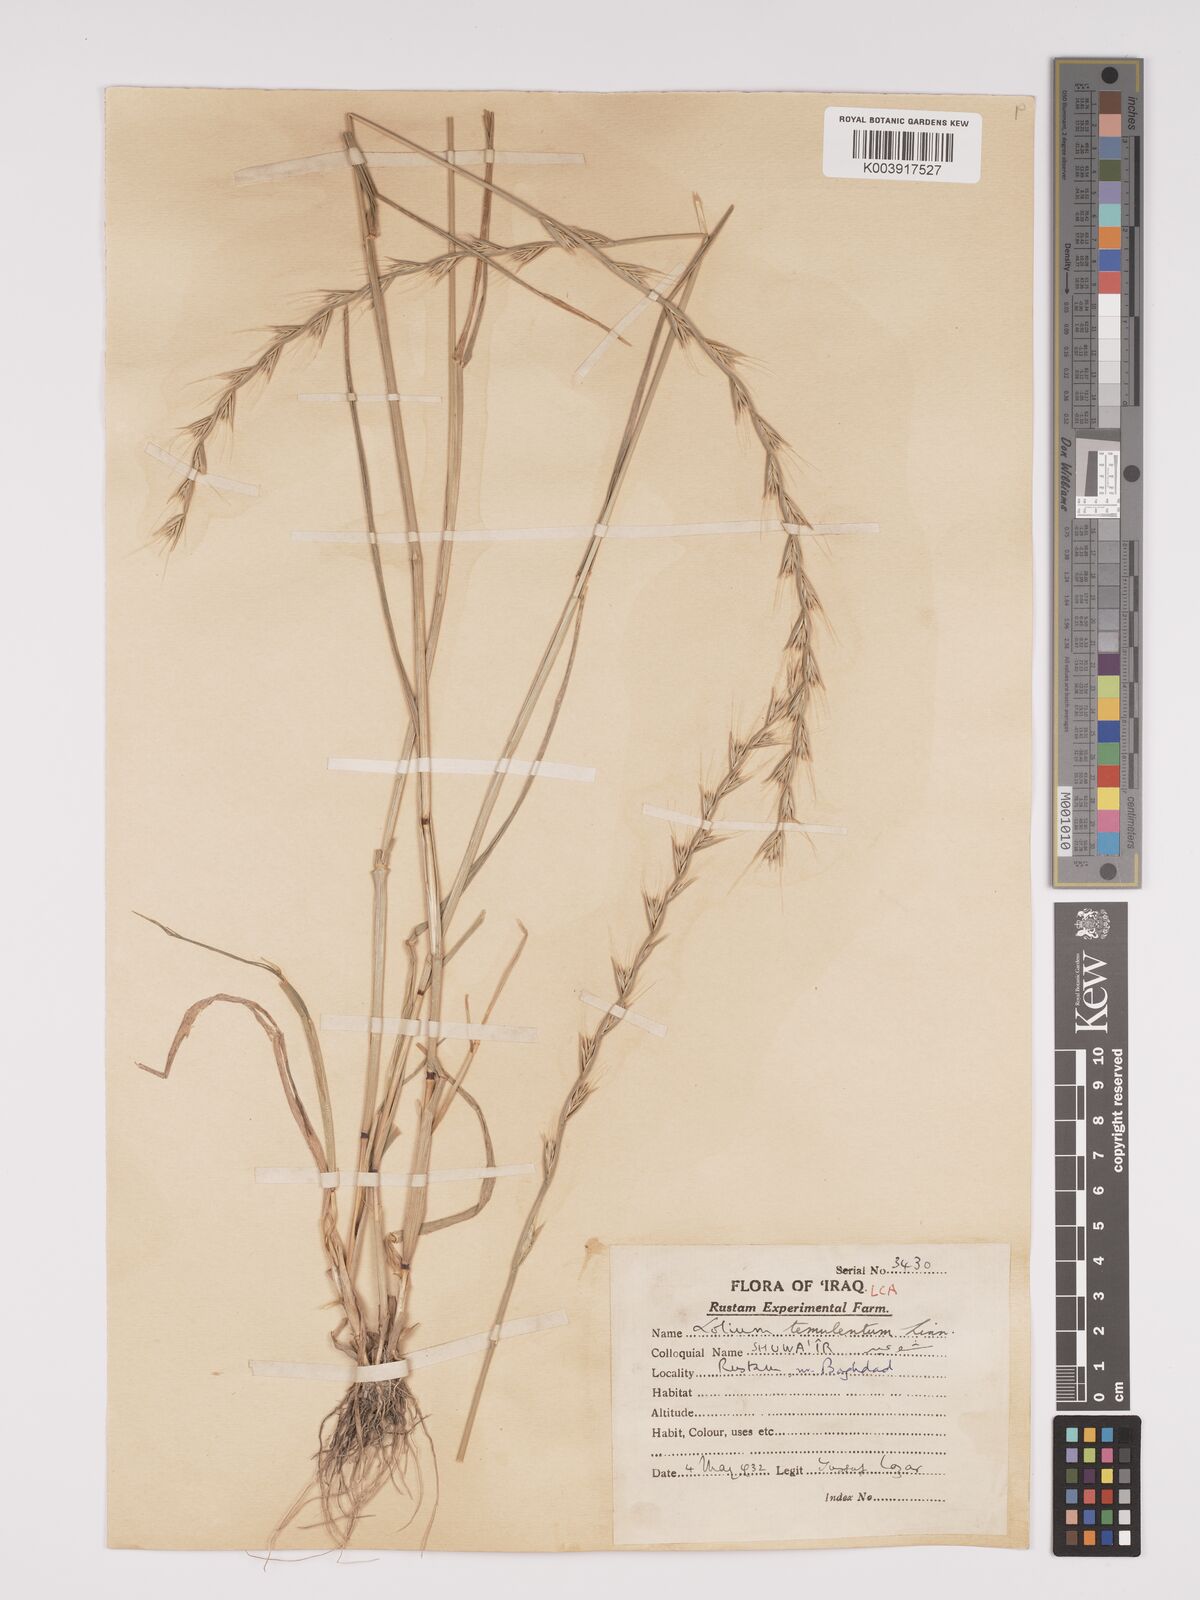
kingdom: Plantae
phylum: Tracheophyta
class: Liliopsida
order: Poales
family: Poaceae
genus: Lolium
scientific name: Lolium temulentum
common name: Darnel
